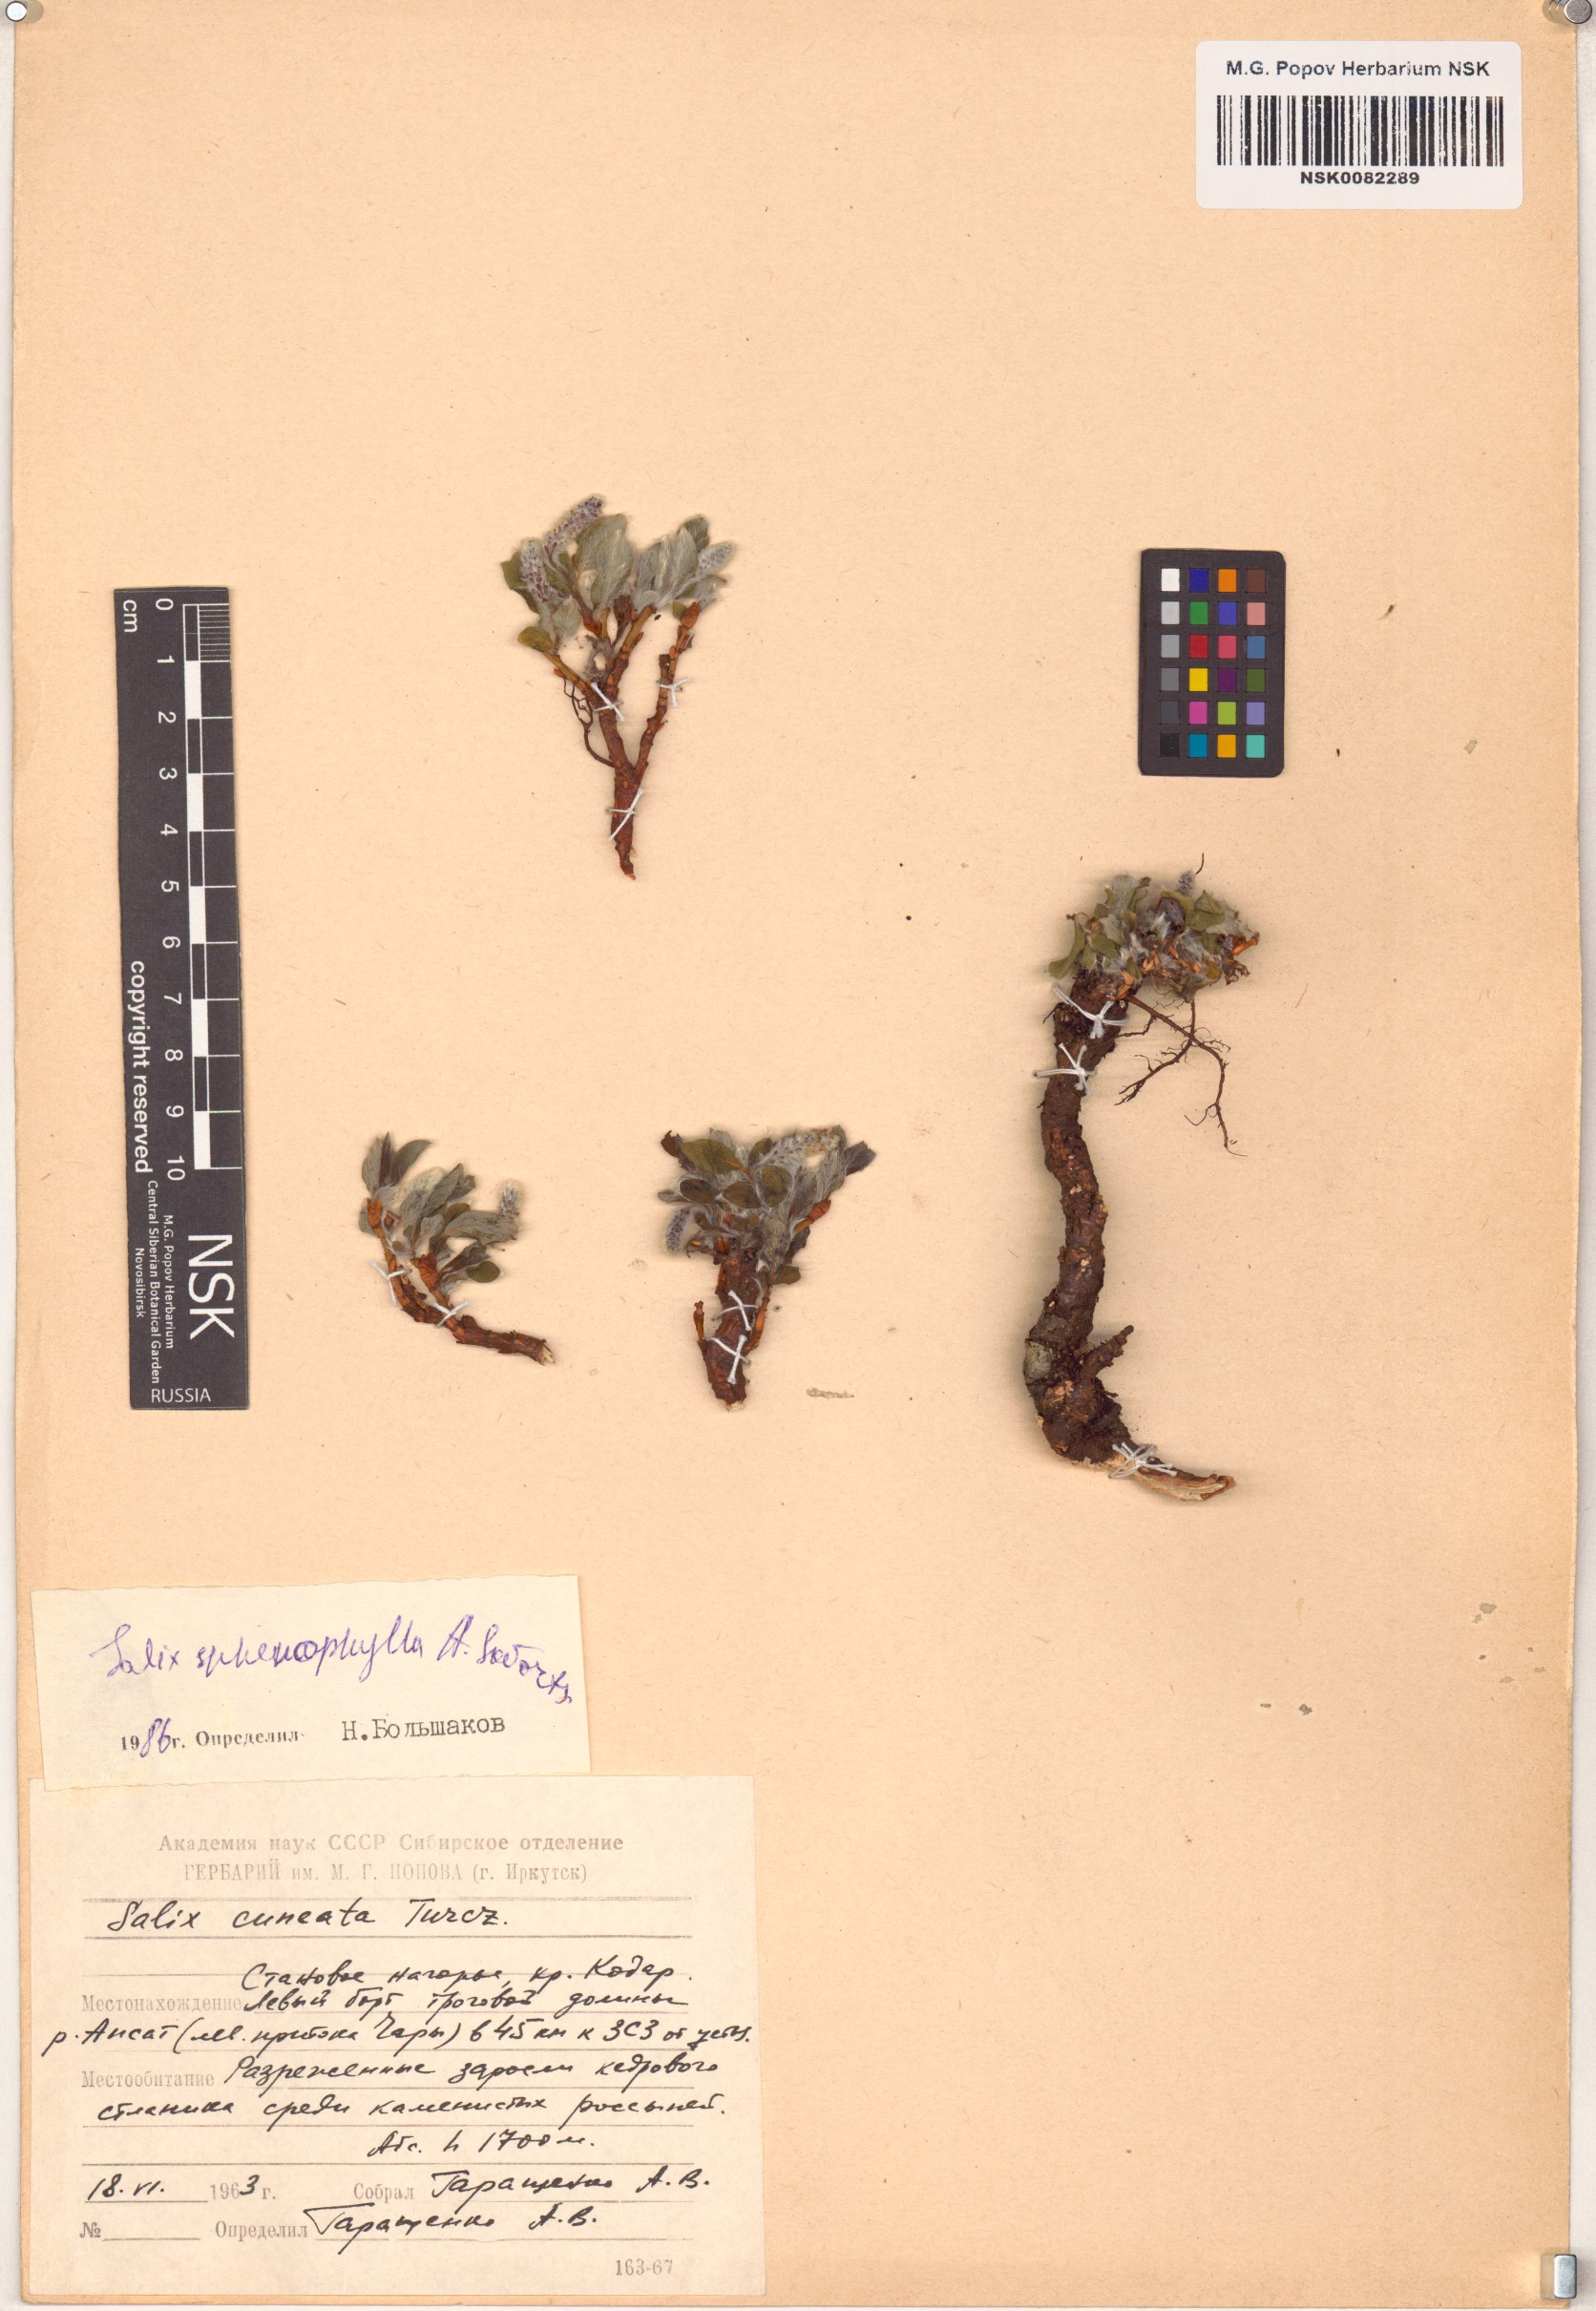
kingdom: Plantae
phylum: Tracheophyta
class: Magnoliopsida
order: Malpighiales
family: Salicaceae
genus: Salix
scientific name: Salix sphenophylla
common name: Wedge-leaved willow
